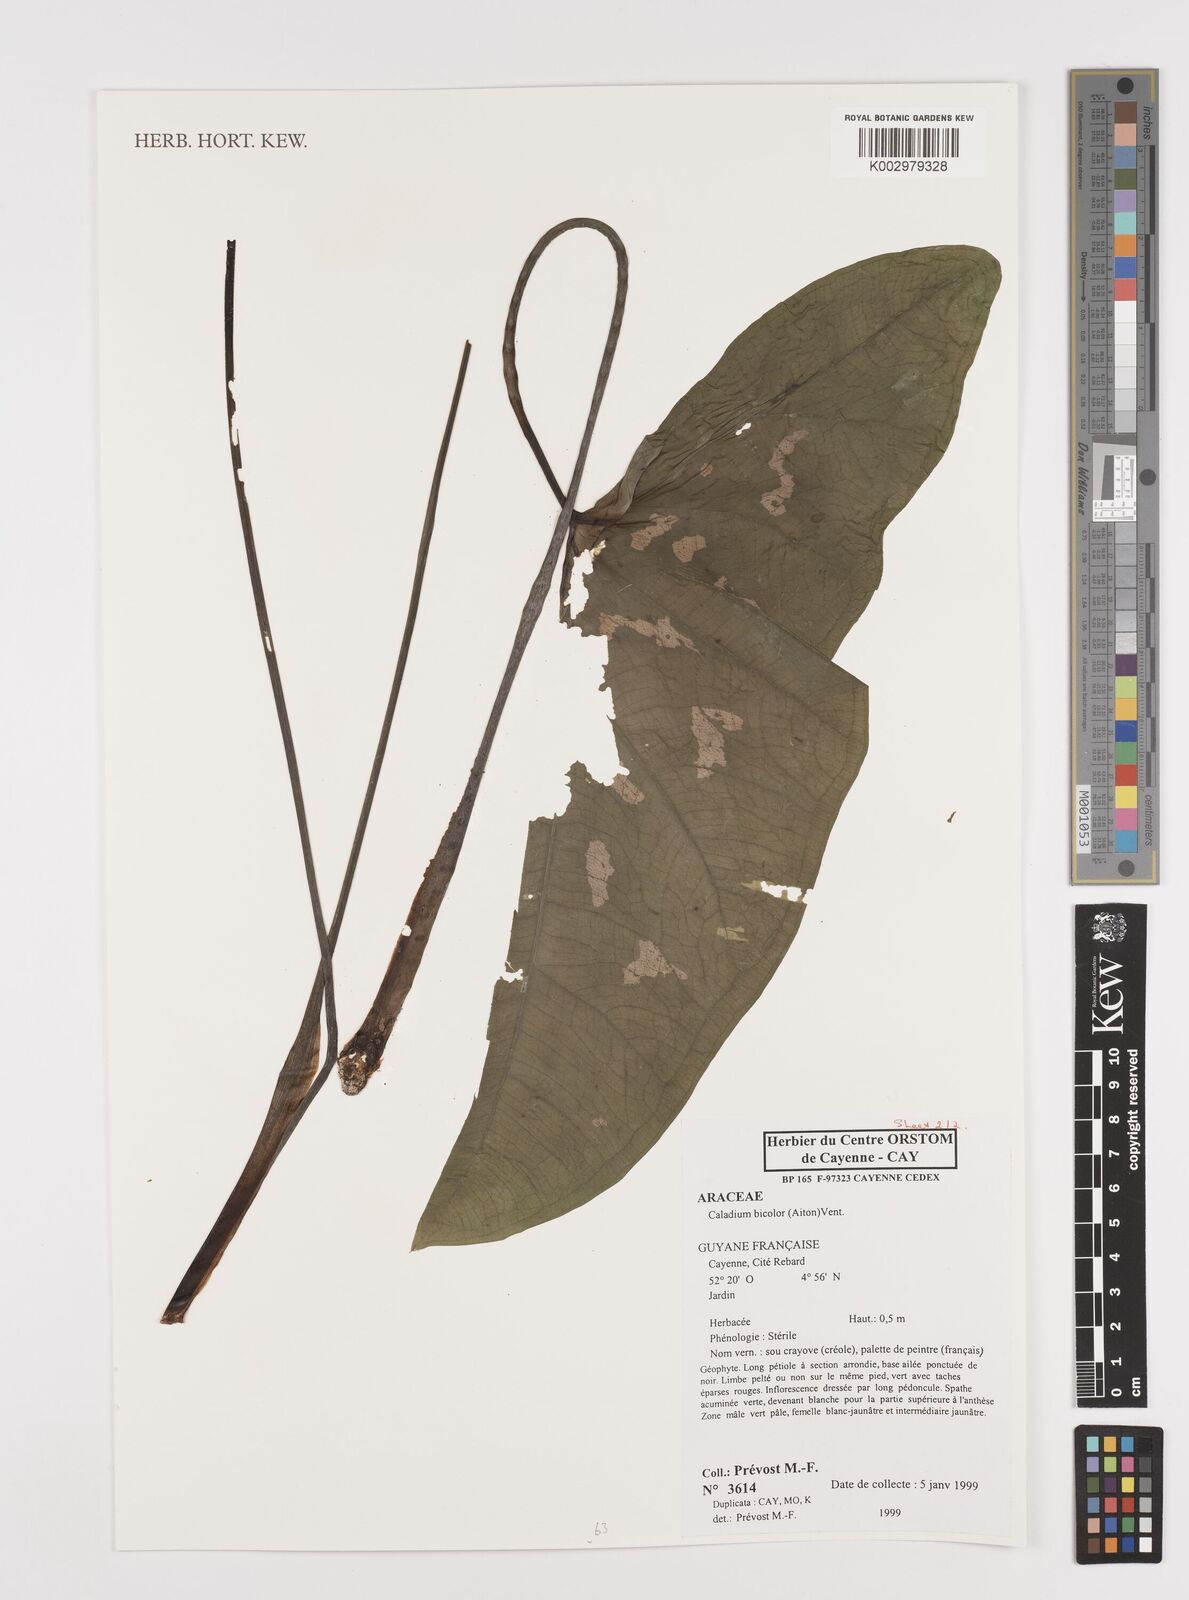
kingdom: Plantae
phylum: Tracheophyta
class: Liliopsida
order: Alismatales
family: Araceae
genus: Caladium
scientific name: Caladium bicolor
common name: Artist's pallet
